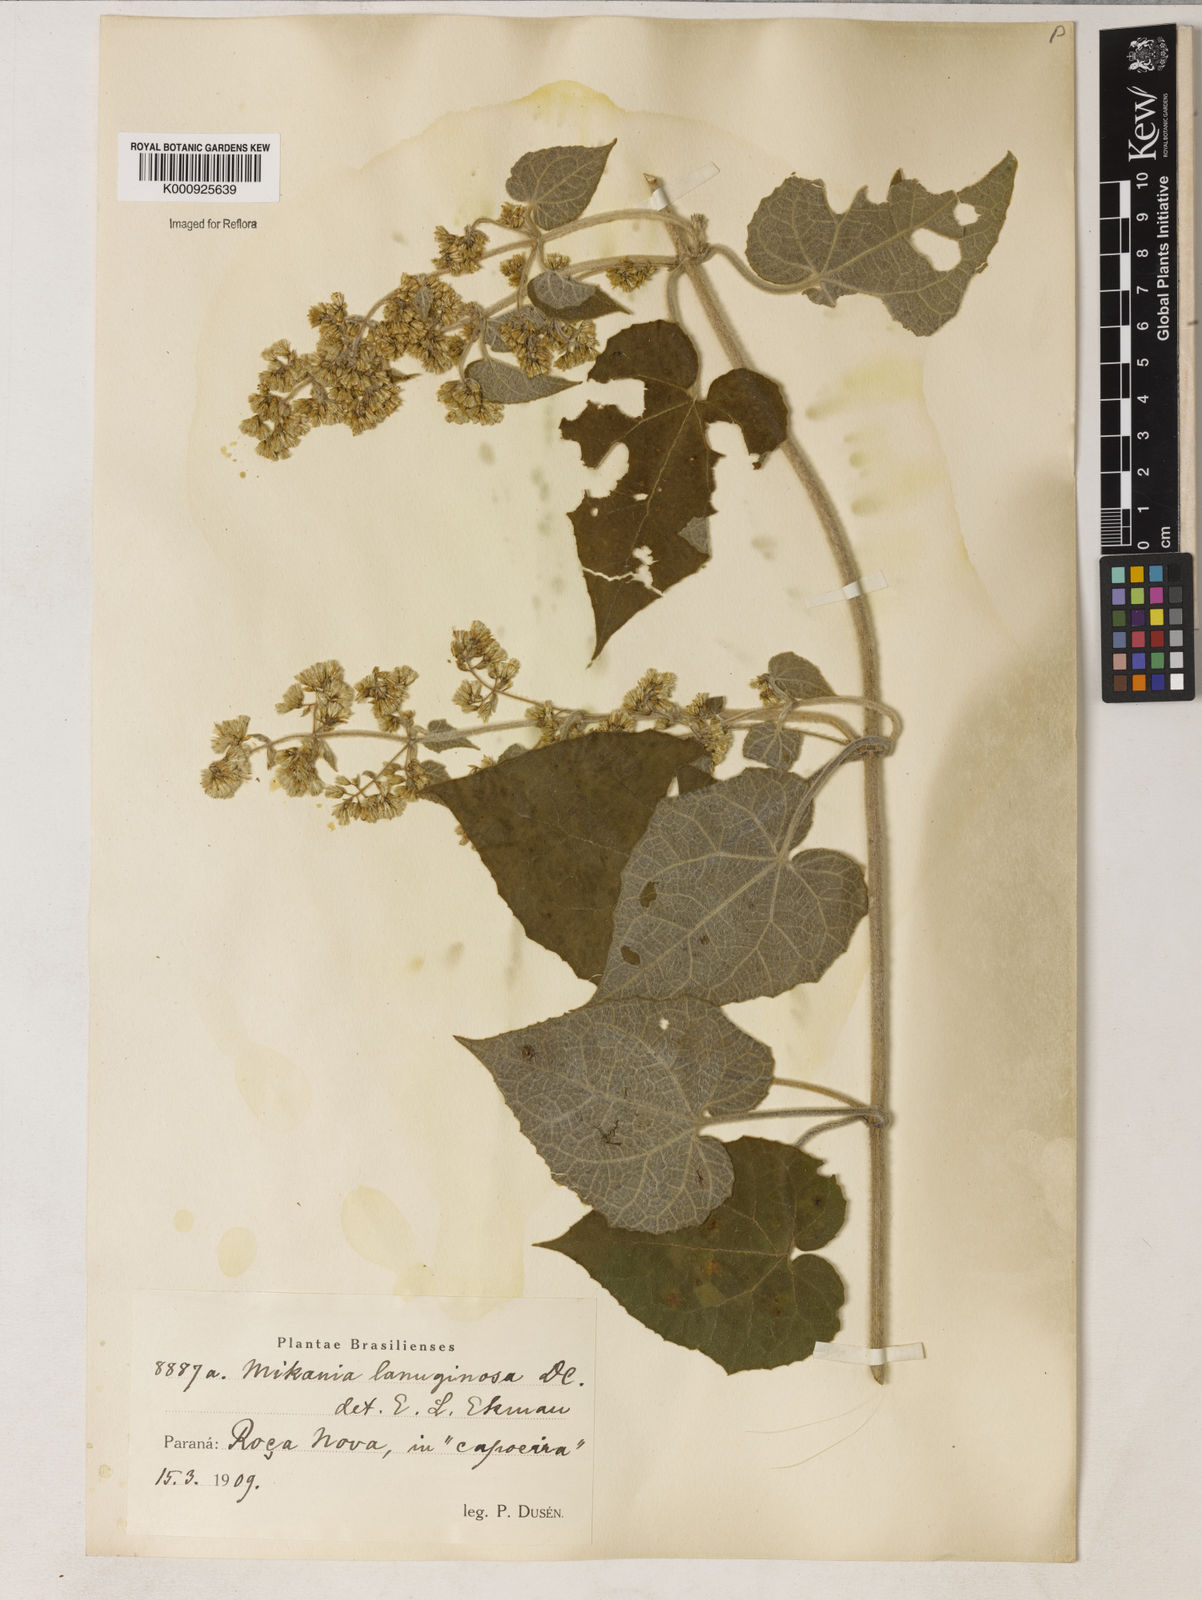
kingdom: Plantae
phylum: Tracheophyta
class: Magnoliopsida
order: Asterales
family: Asteraceae
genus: Mikania
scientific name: Mikania laevigata
